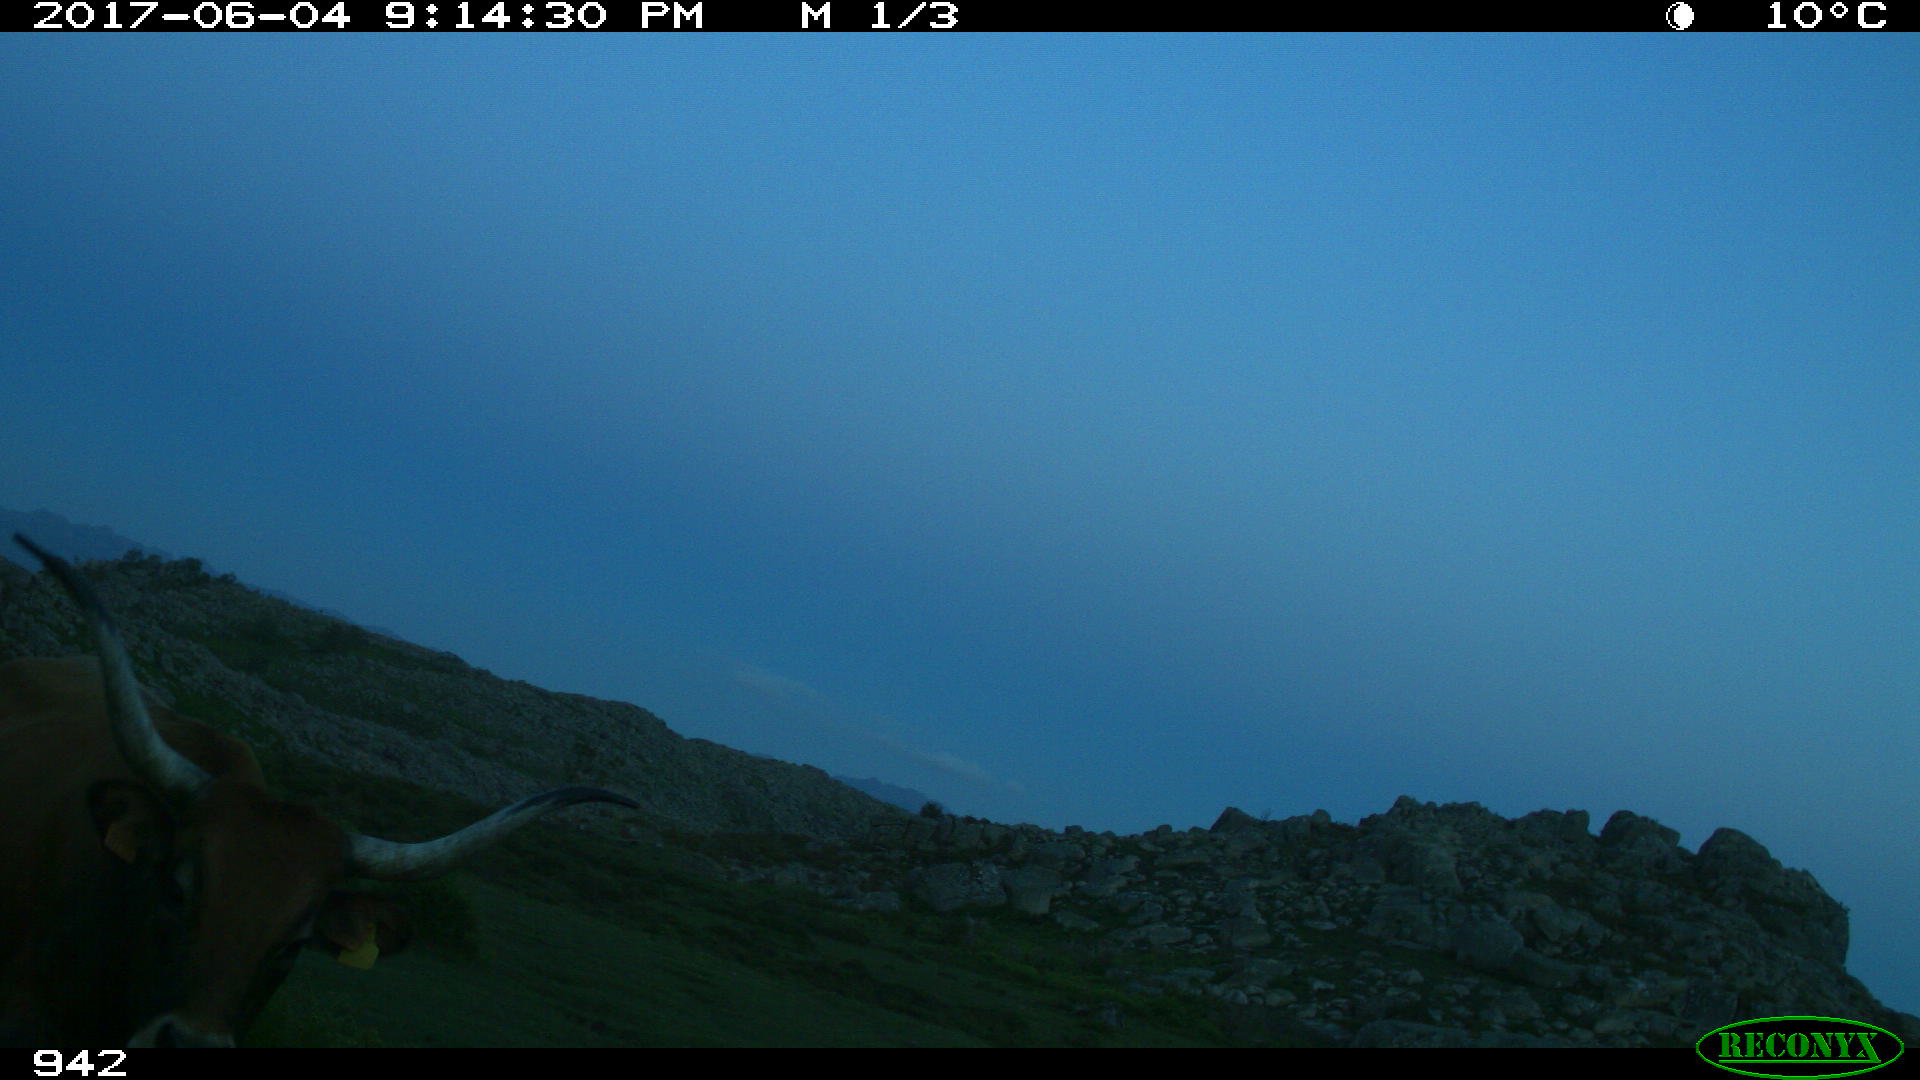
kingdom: Animalia
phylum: Chordata
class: Mammalia
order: Artiodactyla
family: Bovidae
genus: Bos
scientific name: Bos taurus
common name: Domesticated cattle
